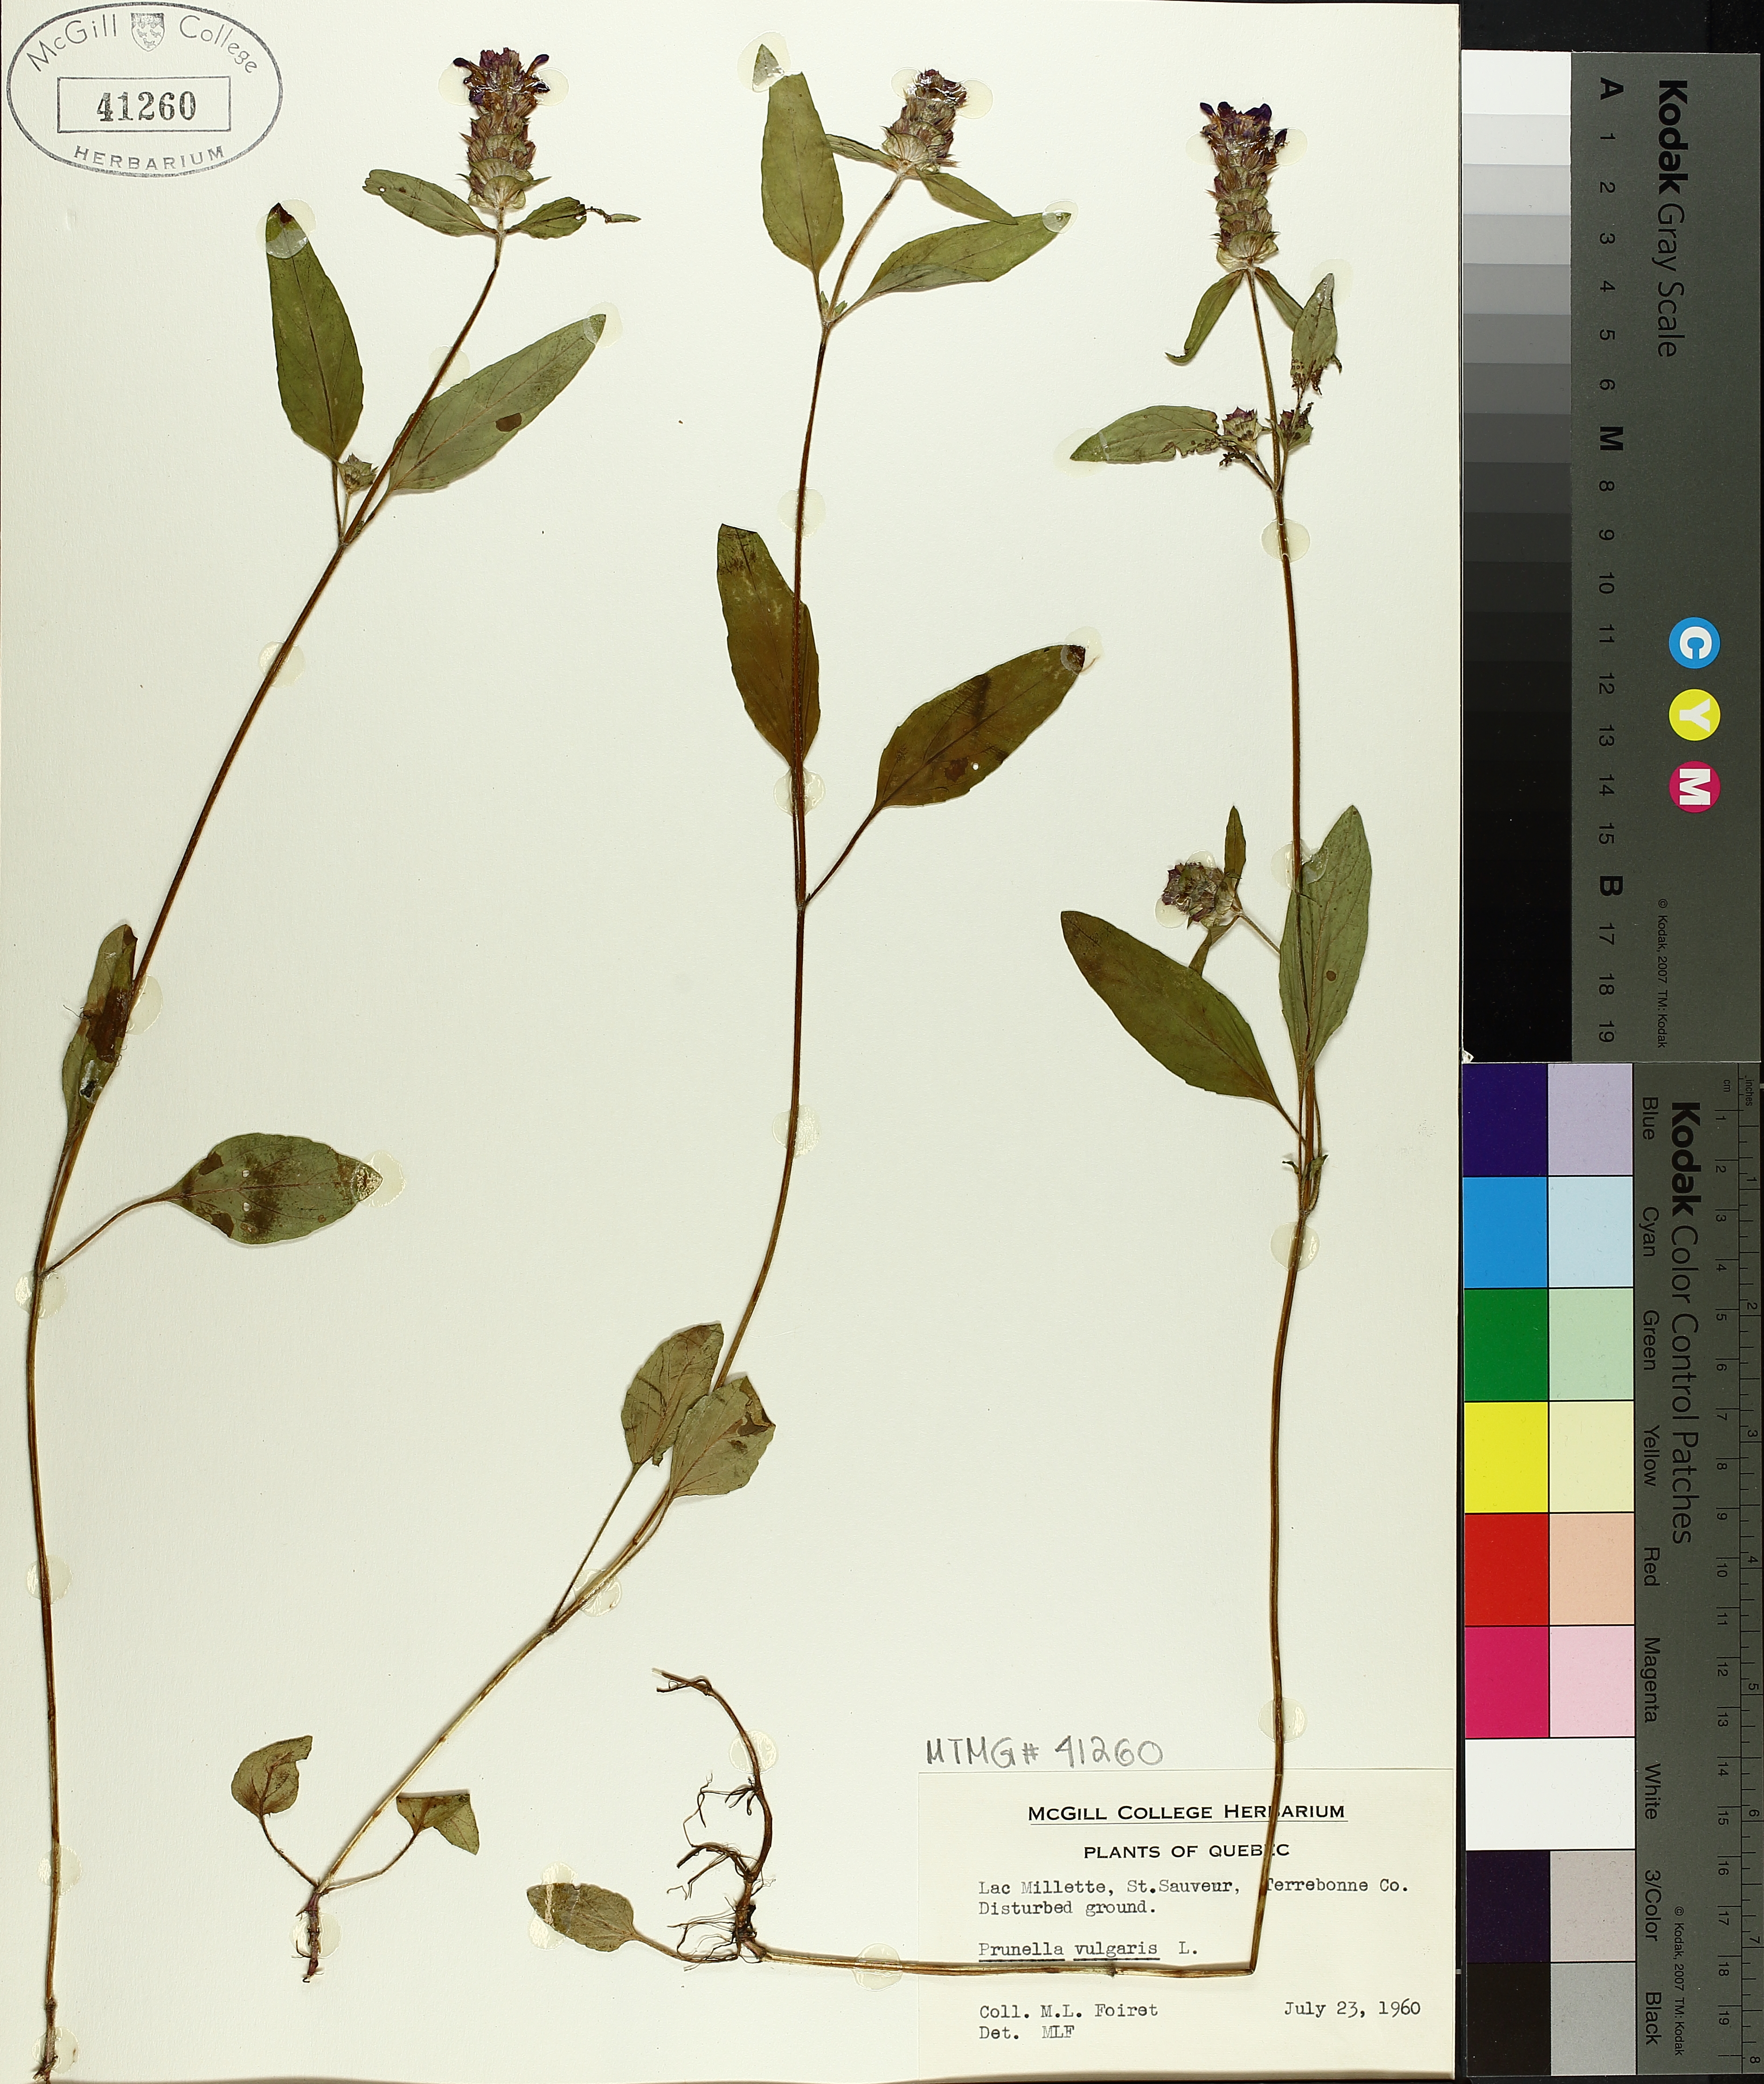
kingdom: Plantae
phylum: Tracheophyta
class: Magnoliopsida
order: Lamiales
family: Lamiaceae
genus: Prunella
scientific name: Prunella vulgaris
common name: Heal-all
